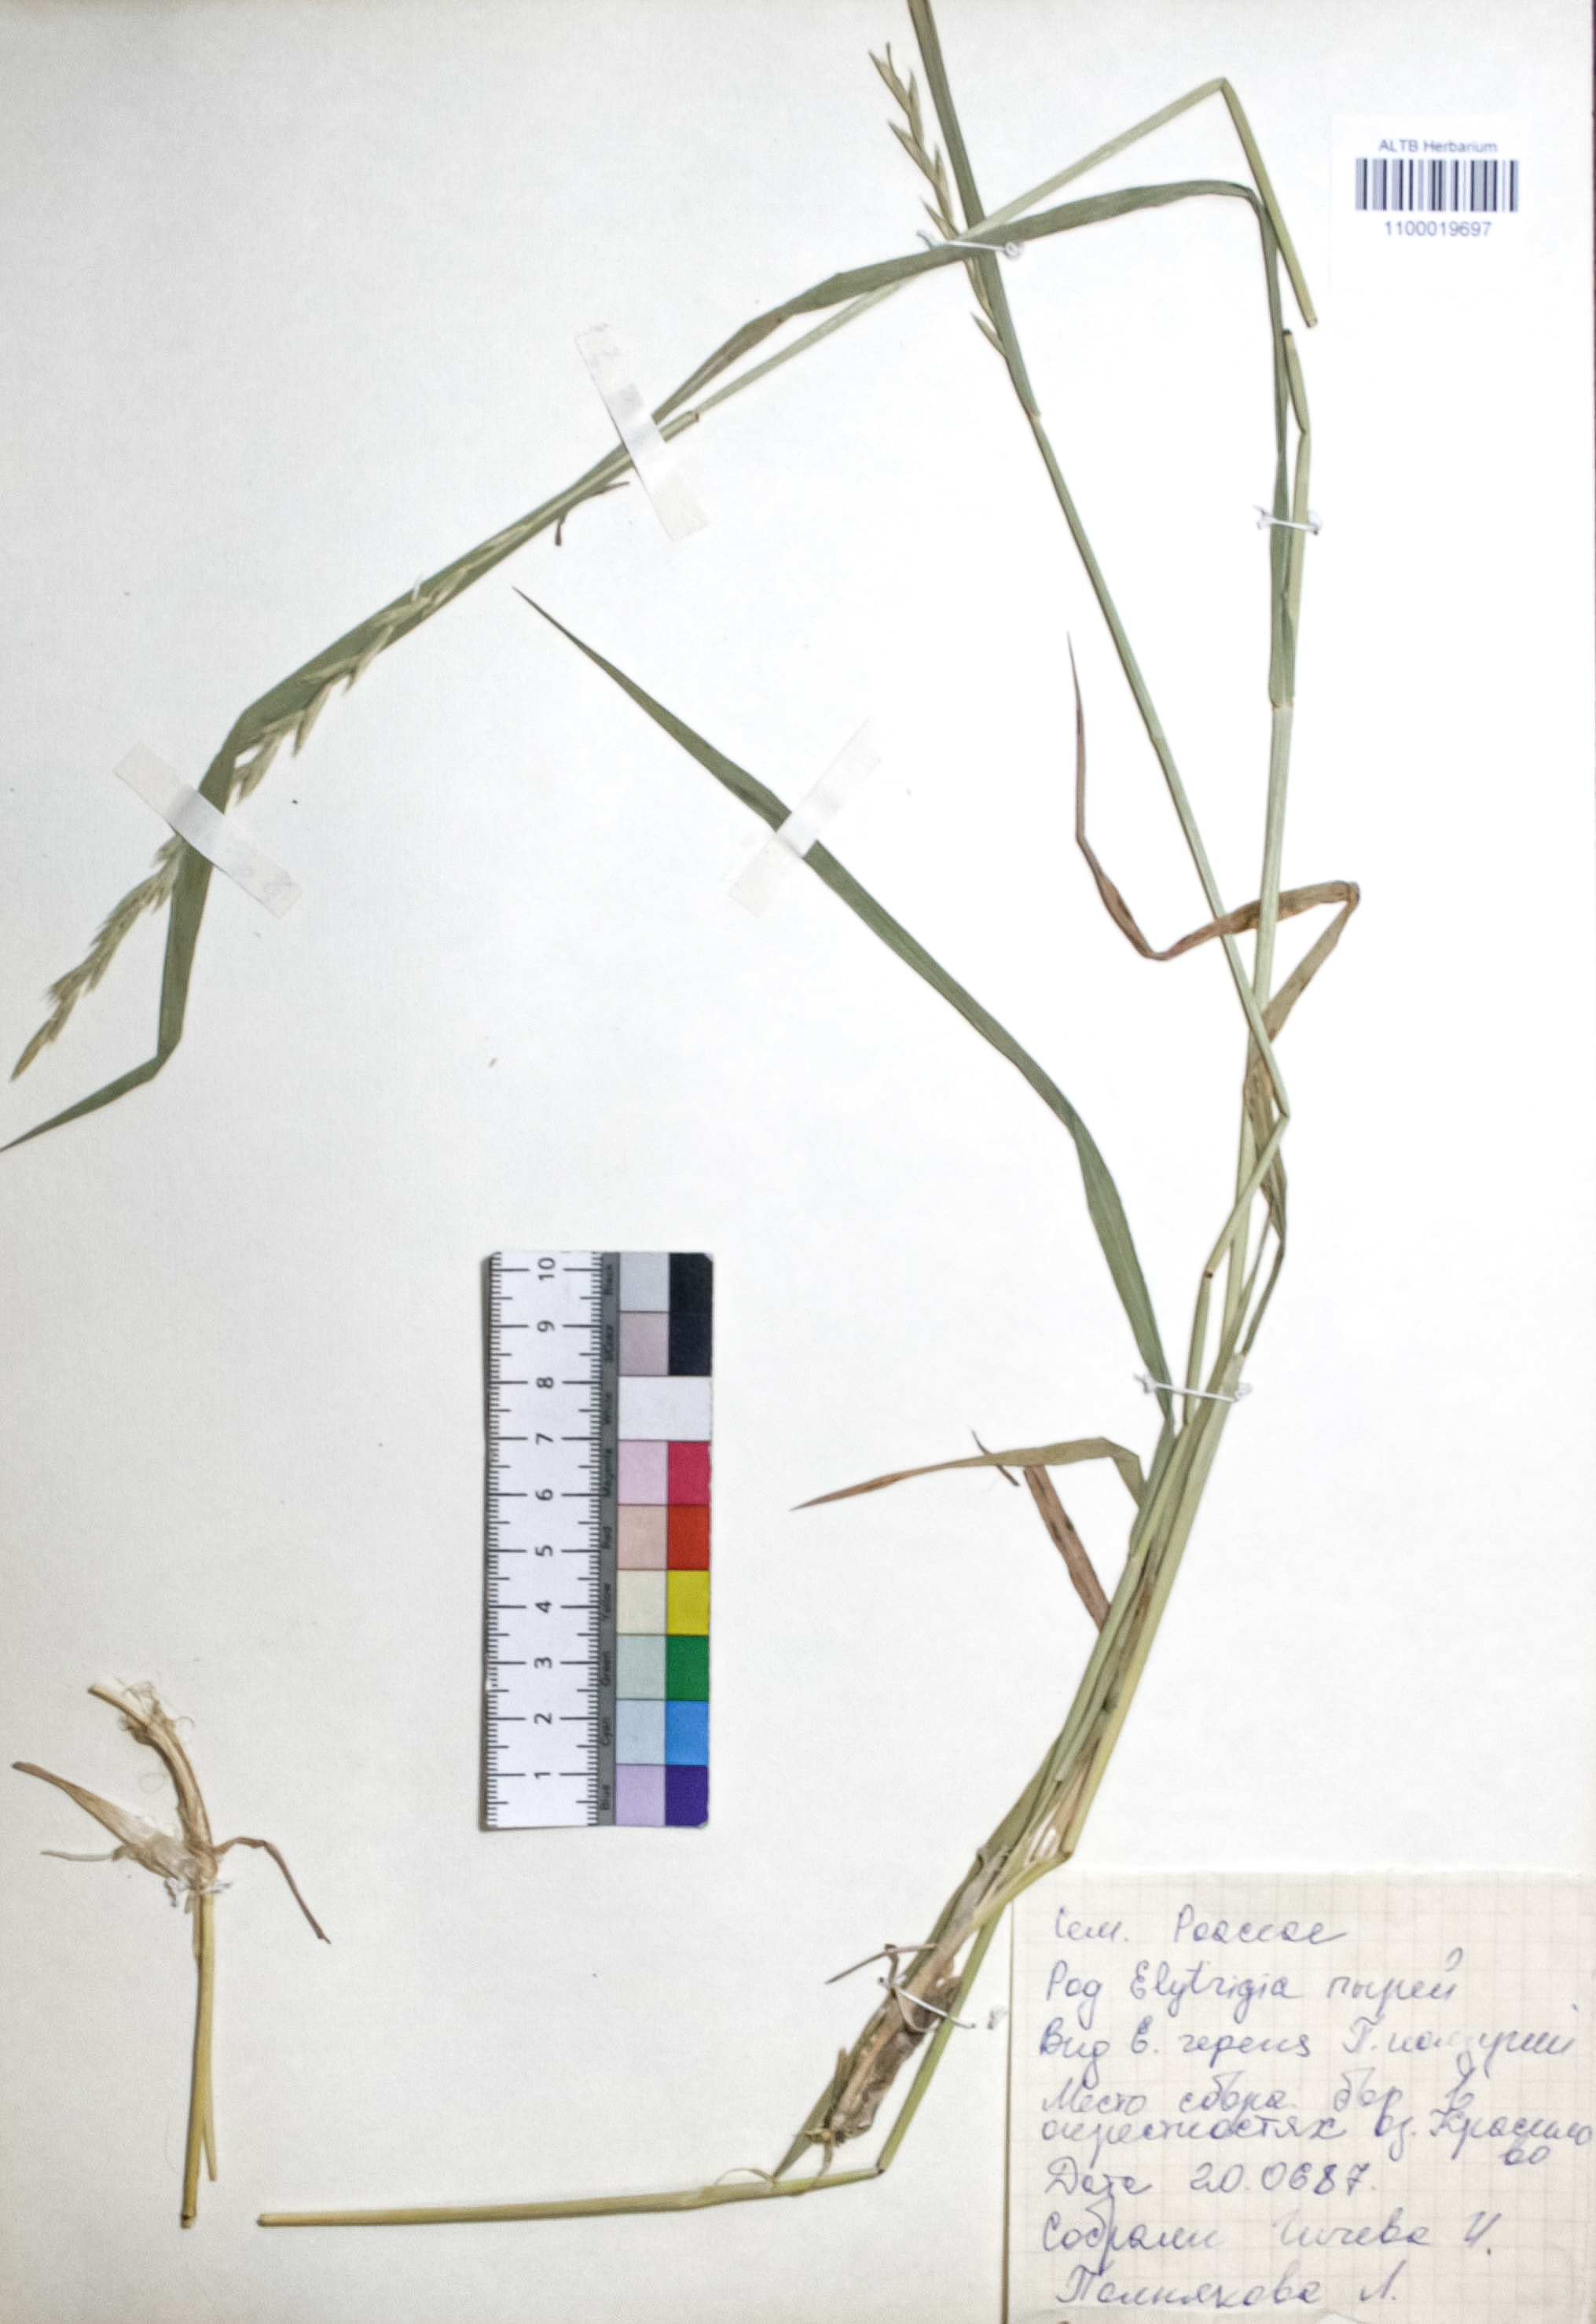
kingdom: Plantae
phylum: Tracheophyta
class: Liliopsida
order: Poales
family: Poaceae
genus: Elymus
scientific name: Elymus repens
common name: Quackgrass
